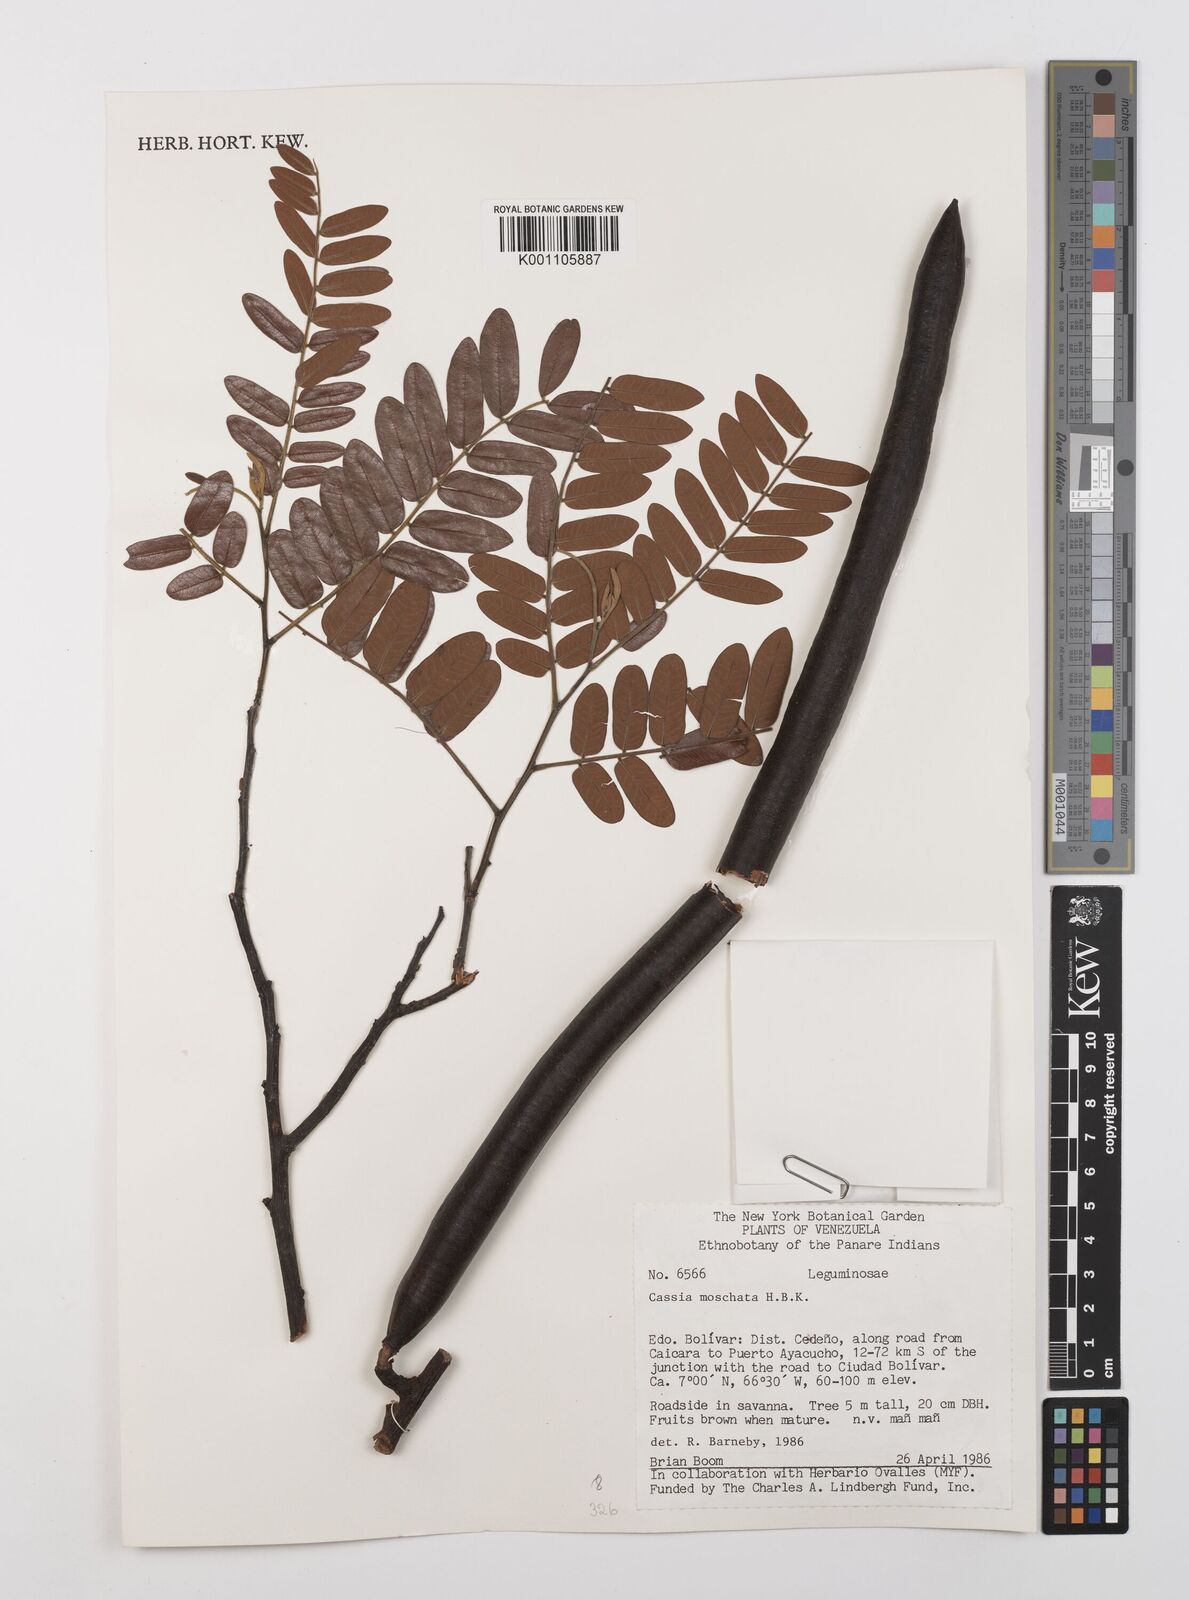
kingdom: Plantae
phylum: Tracheophyta
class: Magnoliopsida
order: Fabales
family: Fabaceae
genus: Cassia
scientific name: Cassia moschata
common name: Bronze shower tree
